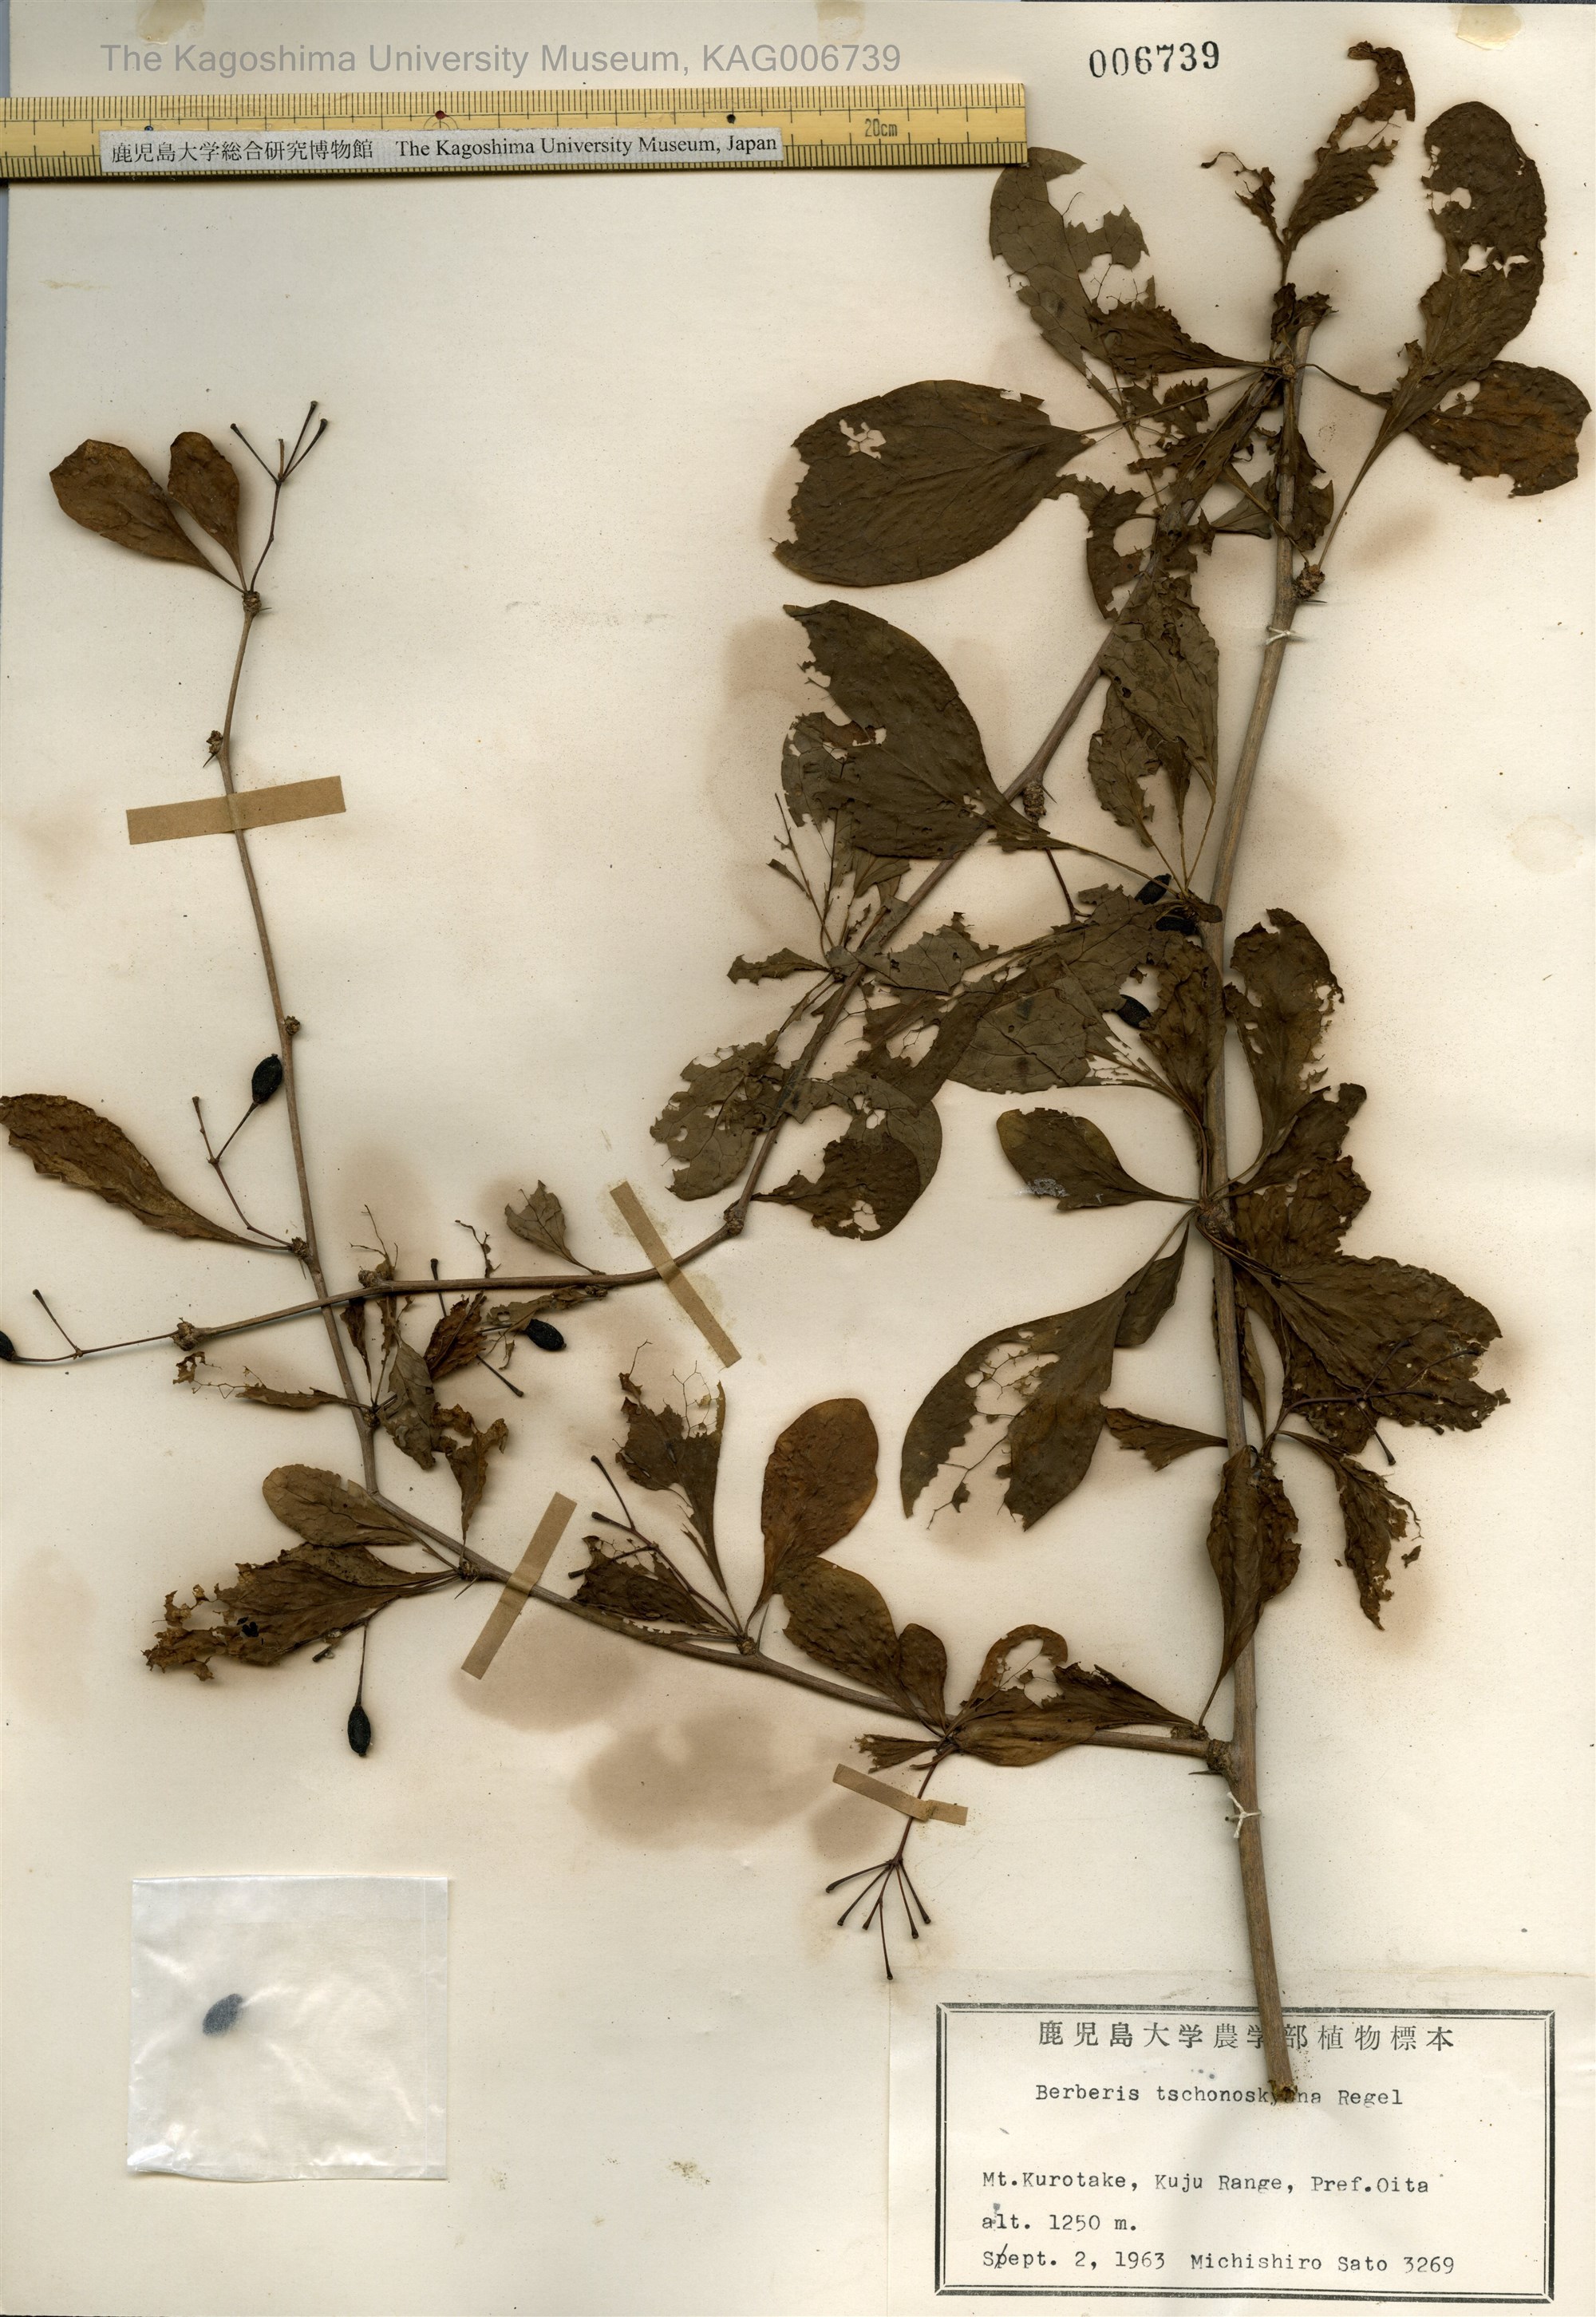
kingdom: Plantae
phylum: Tracheophyta
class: Magnoliopsida
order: Ranunculales
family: Berberidaceae
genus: Berberis
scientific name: Berberis tschonoskyana
